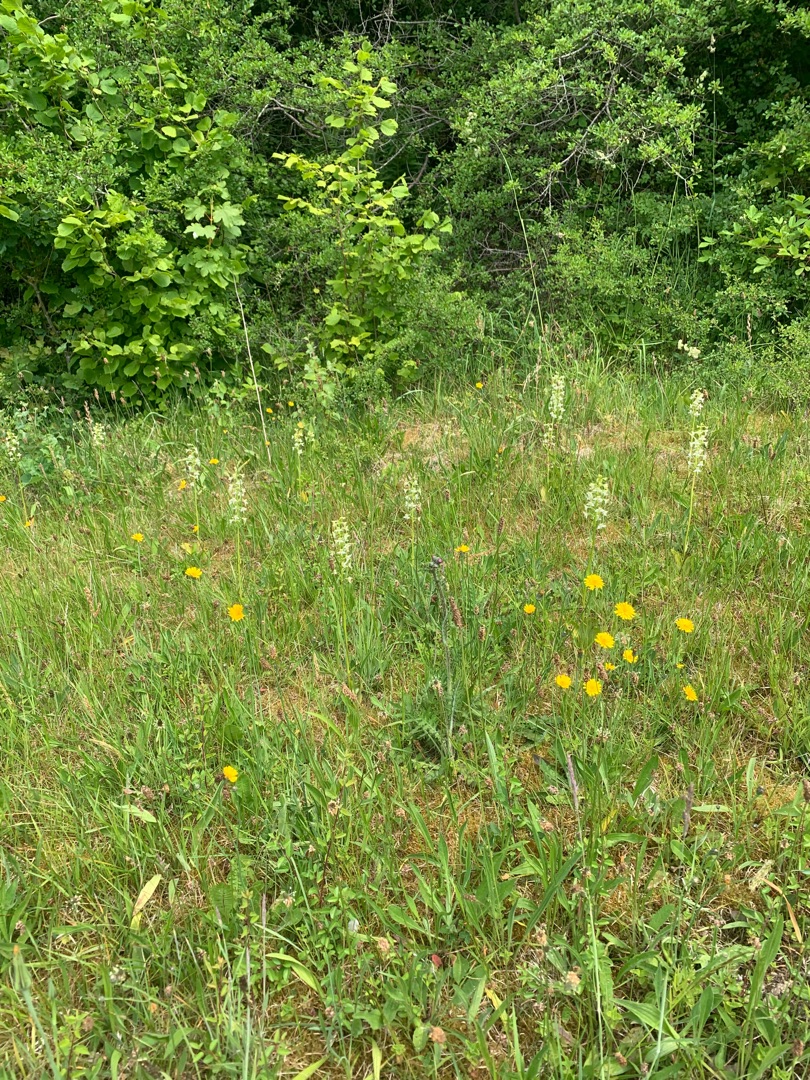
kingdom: Plantae
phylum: Tracheophyta
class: Liliopsida
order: Asparagales
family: Orchidaceae
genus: Platanthera
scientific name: Platanthera chlorantha
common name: Skov-gøgelilje
